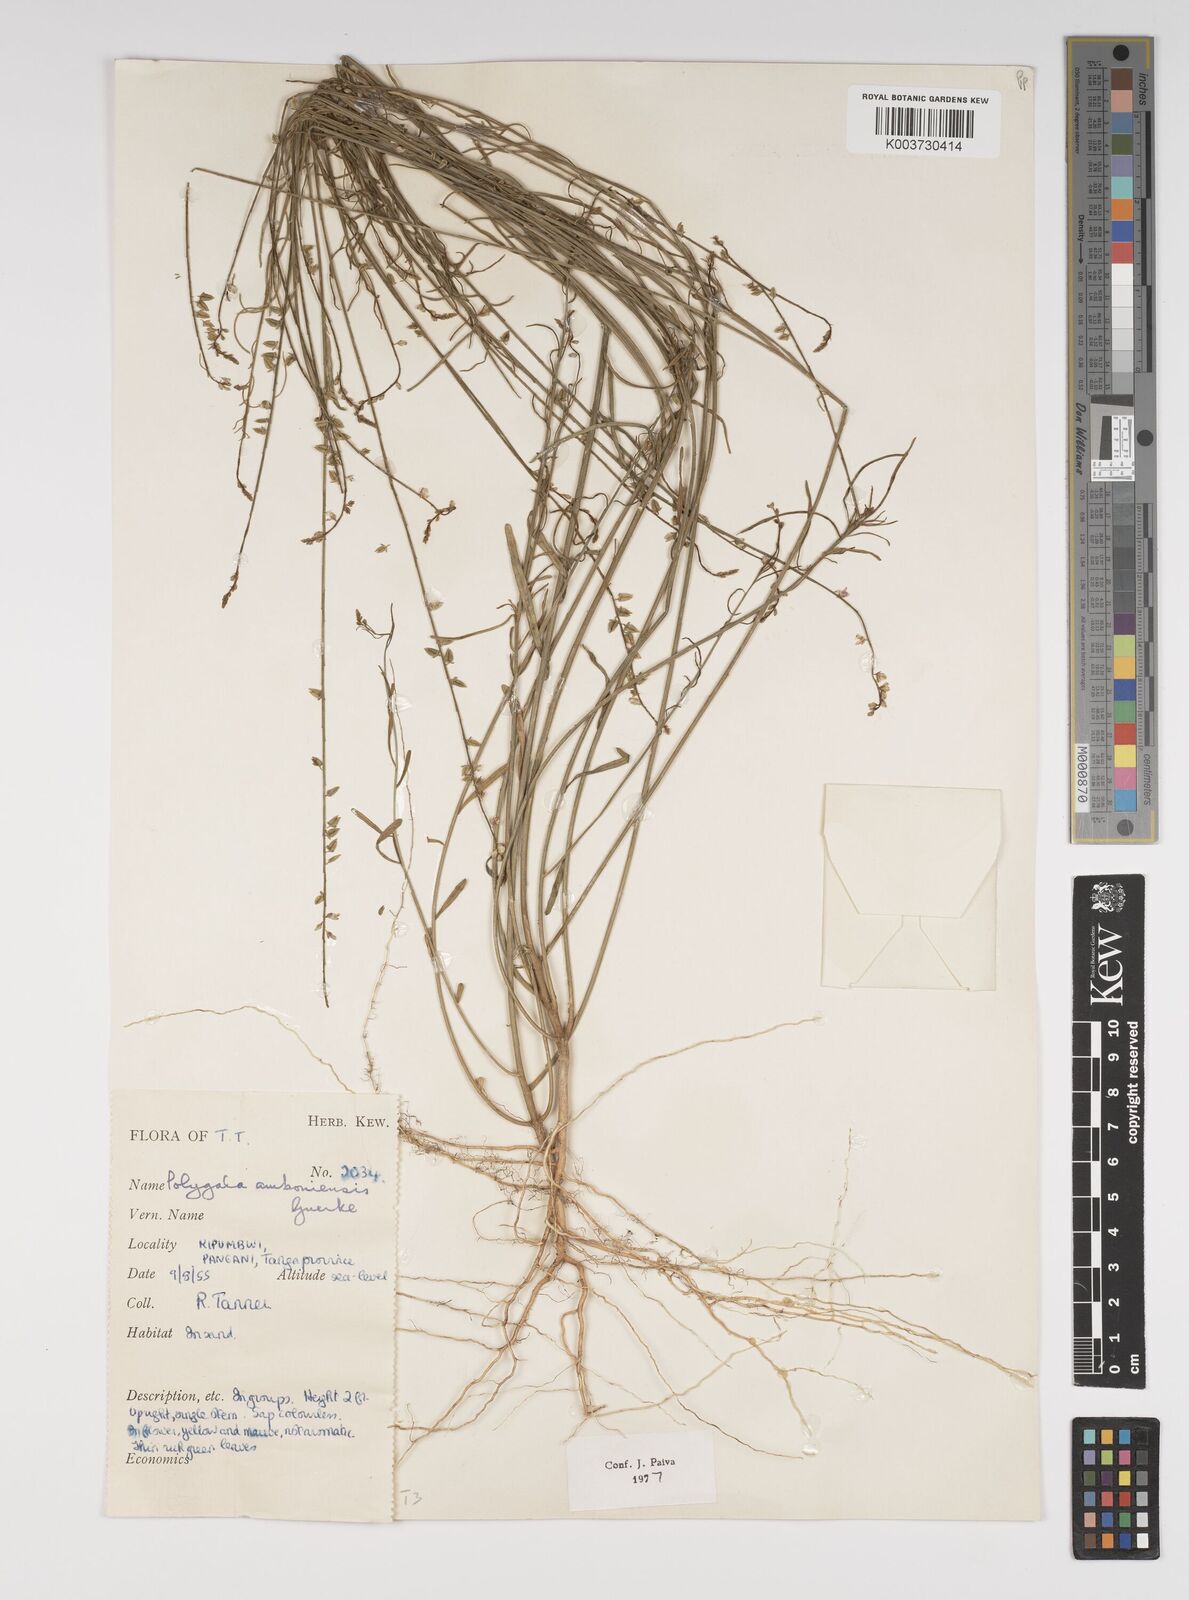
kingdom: Plantae
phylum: Tracheophyta
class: Magnoliopsida
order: Fabales
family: Polygalaceae
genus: Polygala
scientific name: Polygala amboniensis
